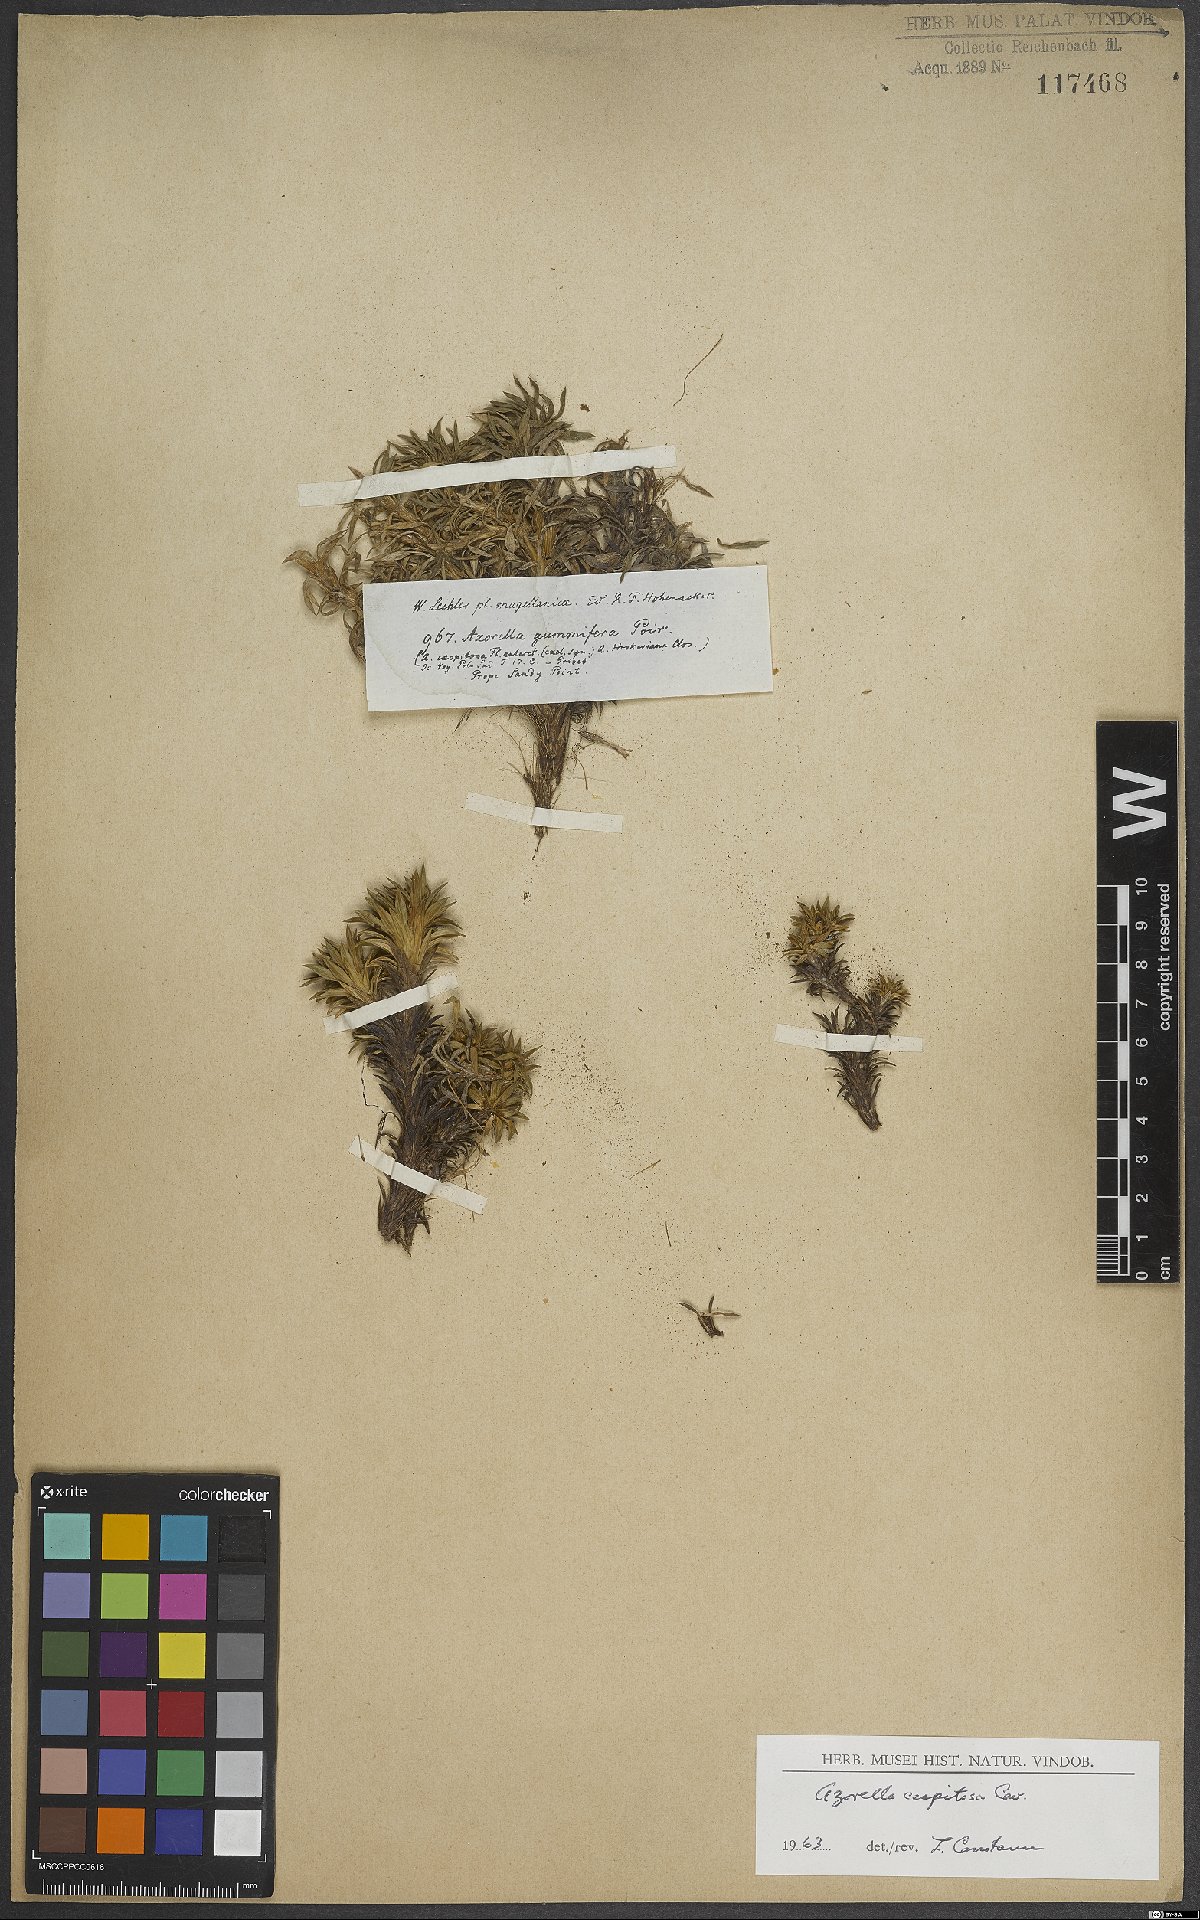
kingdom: Plantae
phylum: Tracheophyta
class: Magnoliopsida
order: Apiales
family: Apiaceae
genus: Azorella
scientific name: Azorella trifurcata
